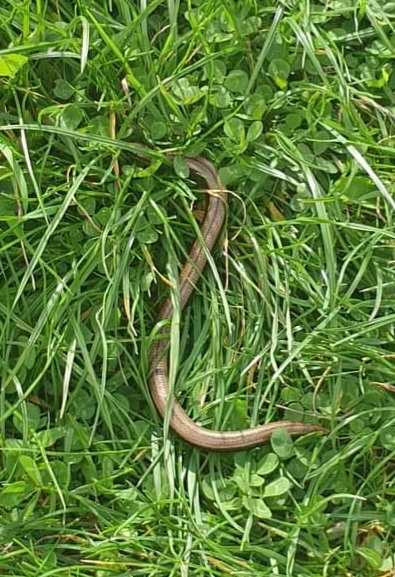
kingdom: Animalia
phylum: Chordata
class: Squamata
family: Anguidae
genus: Anguis
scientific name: Anguis fragilis
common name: Stålorm
